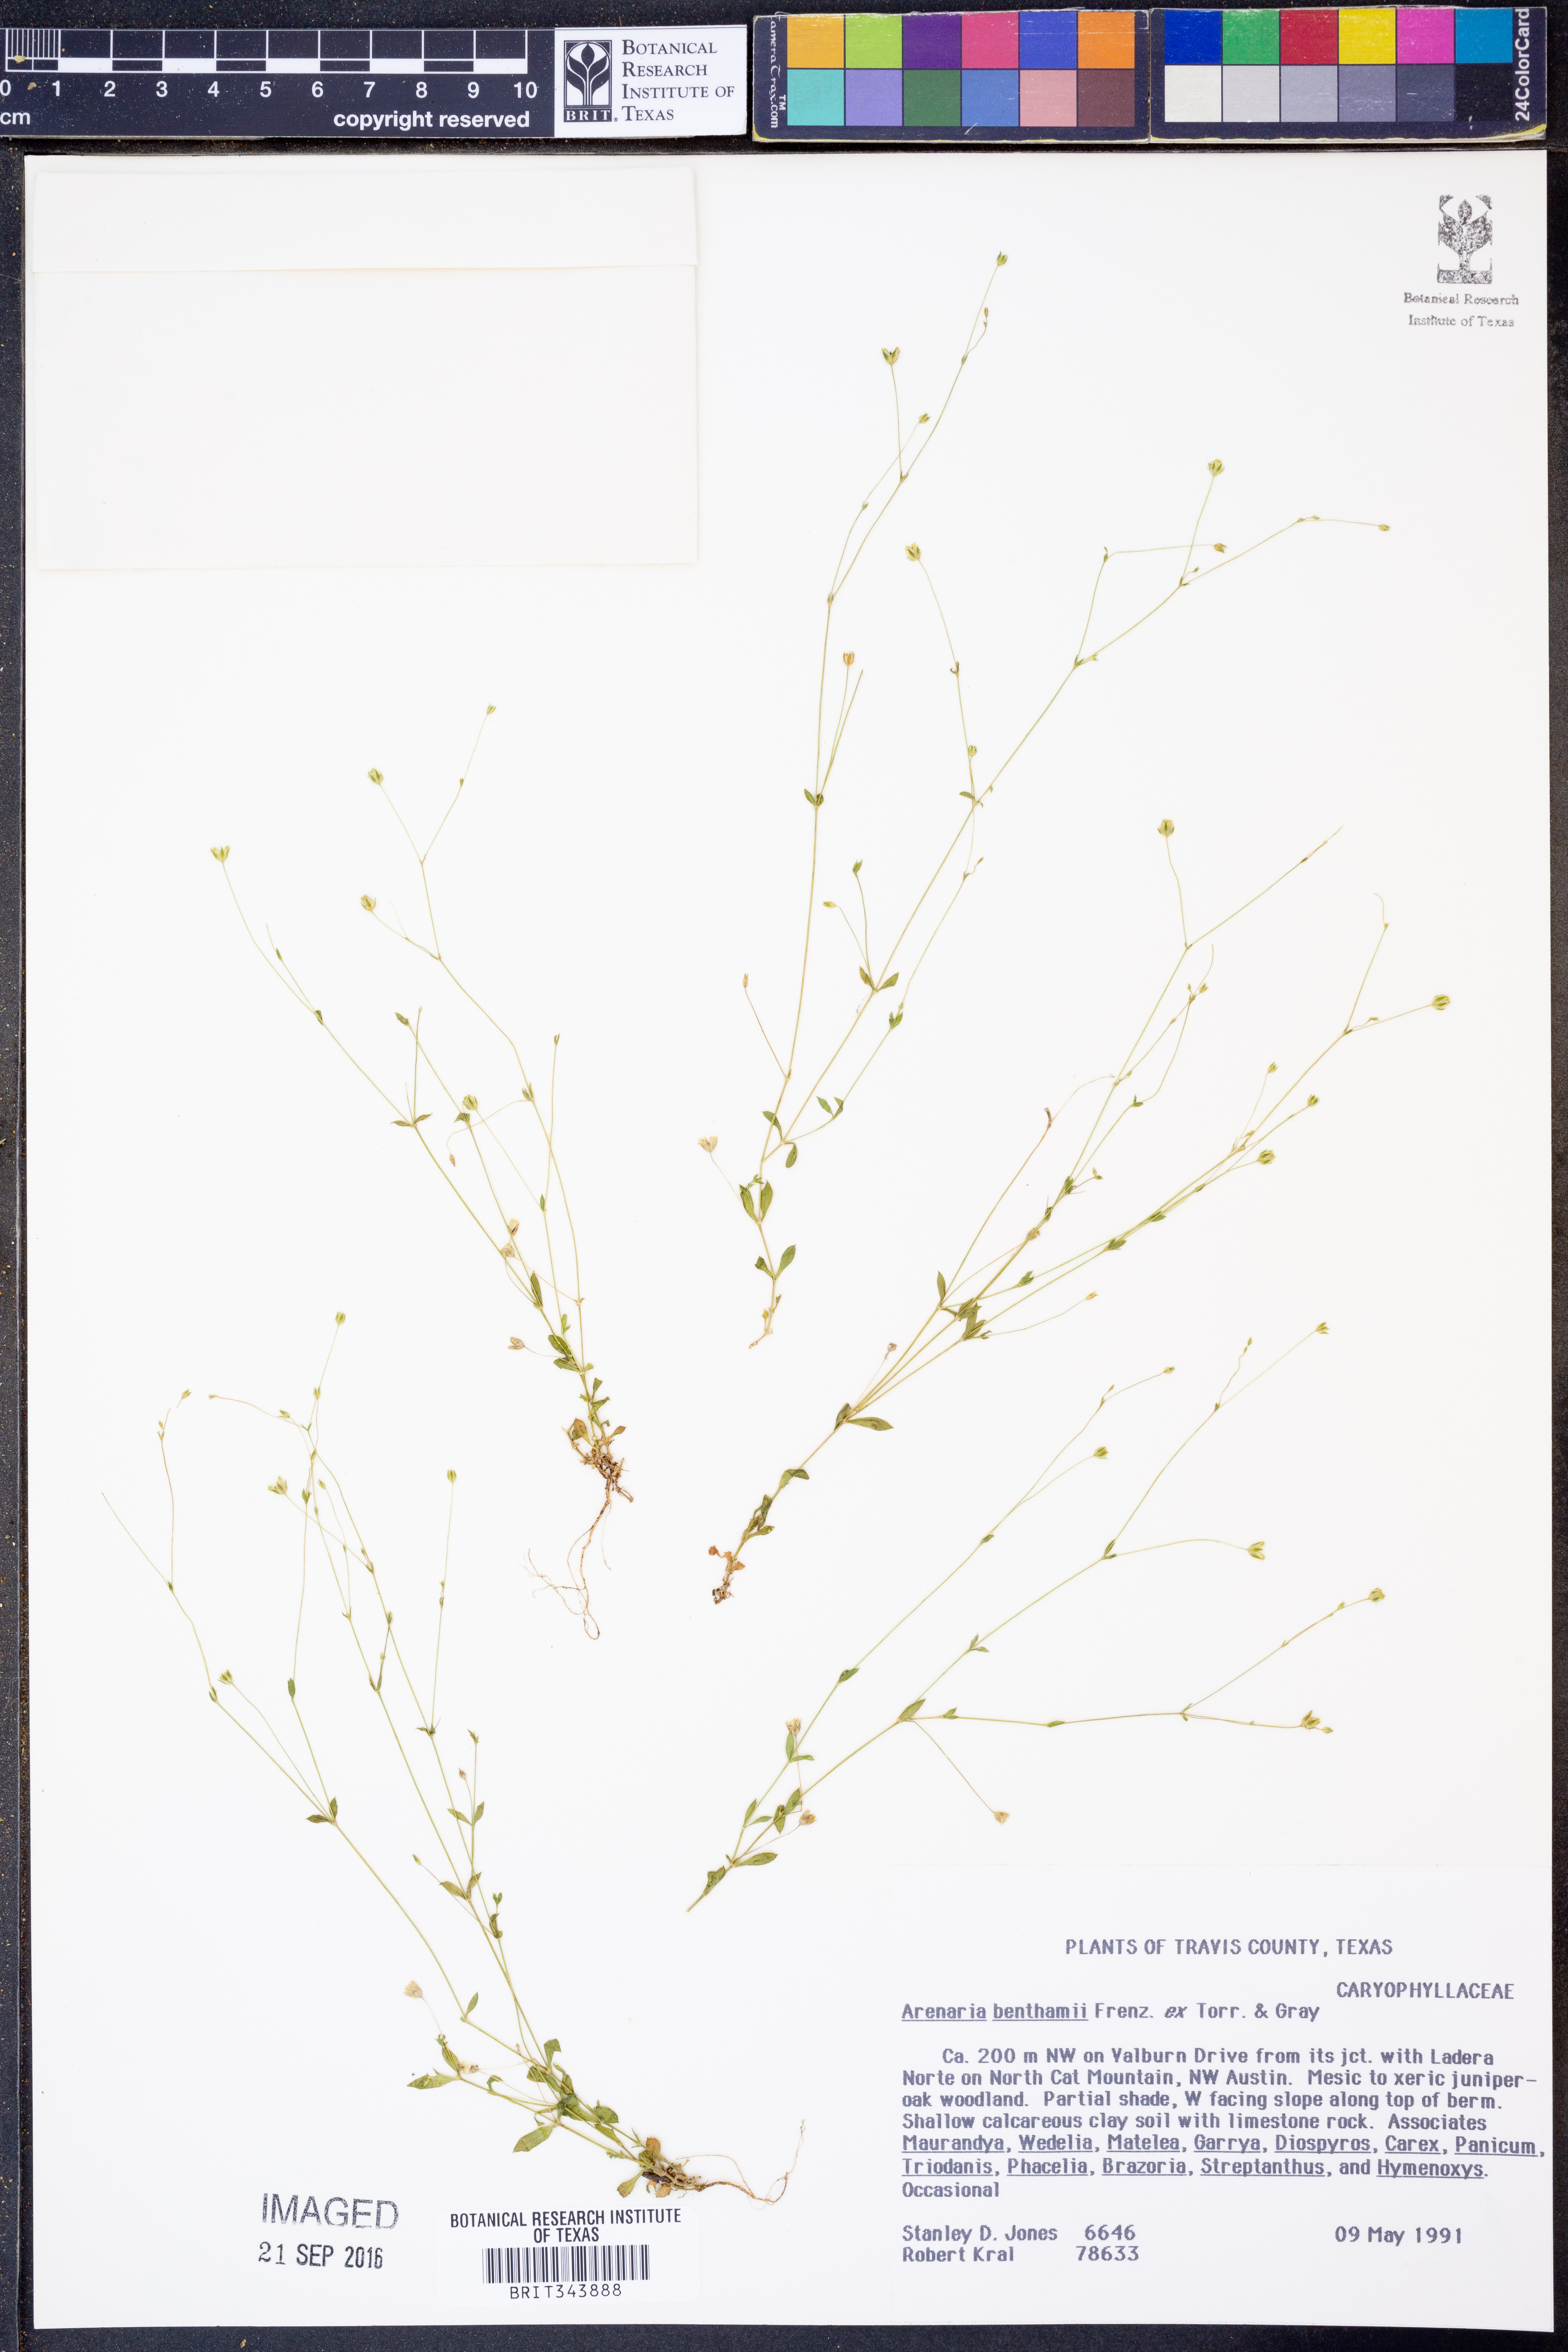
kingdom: Plantae
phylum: Tracheophyta
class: Magnoliopsida
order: Caryophyllales
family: Caryophyllaceae
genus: Arenaria
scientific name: Arenaria benthamii
